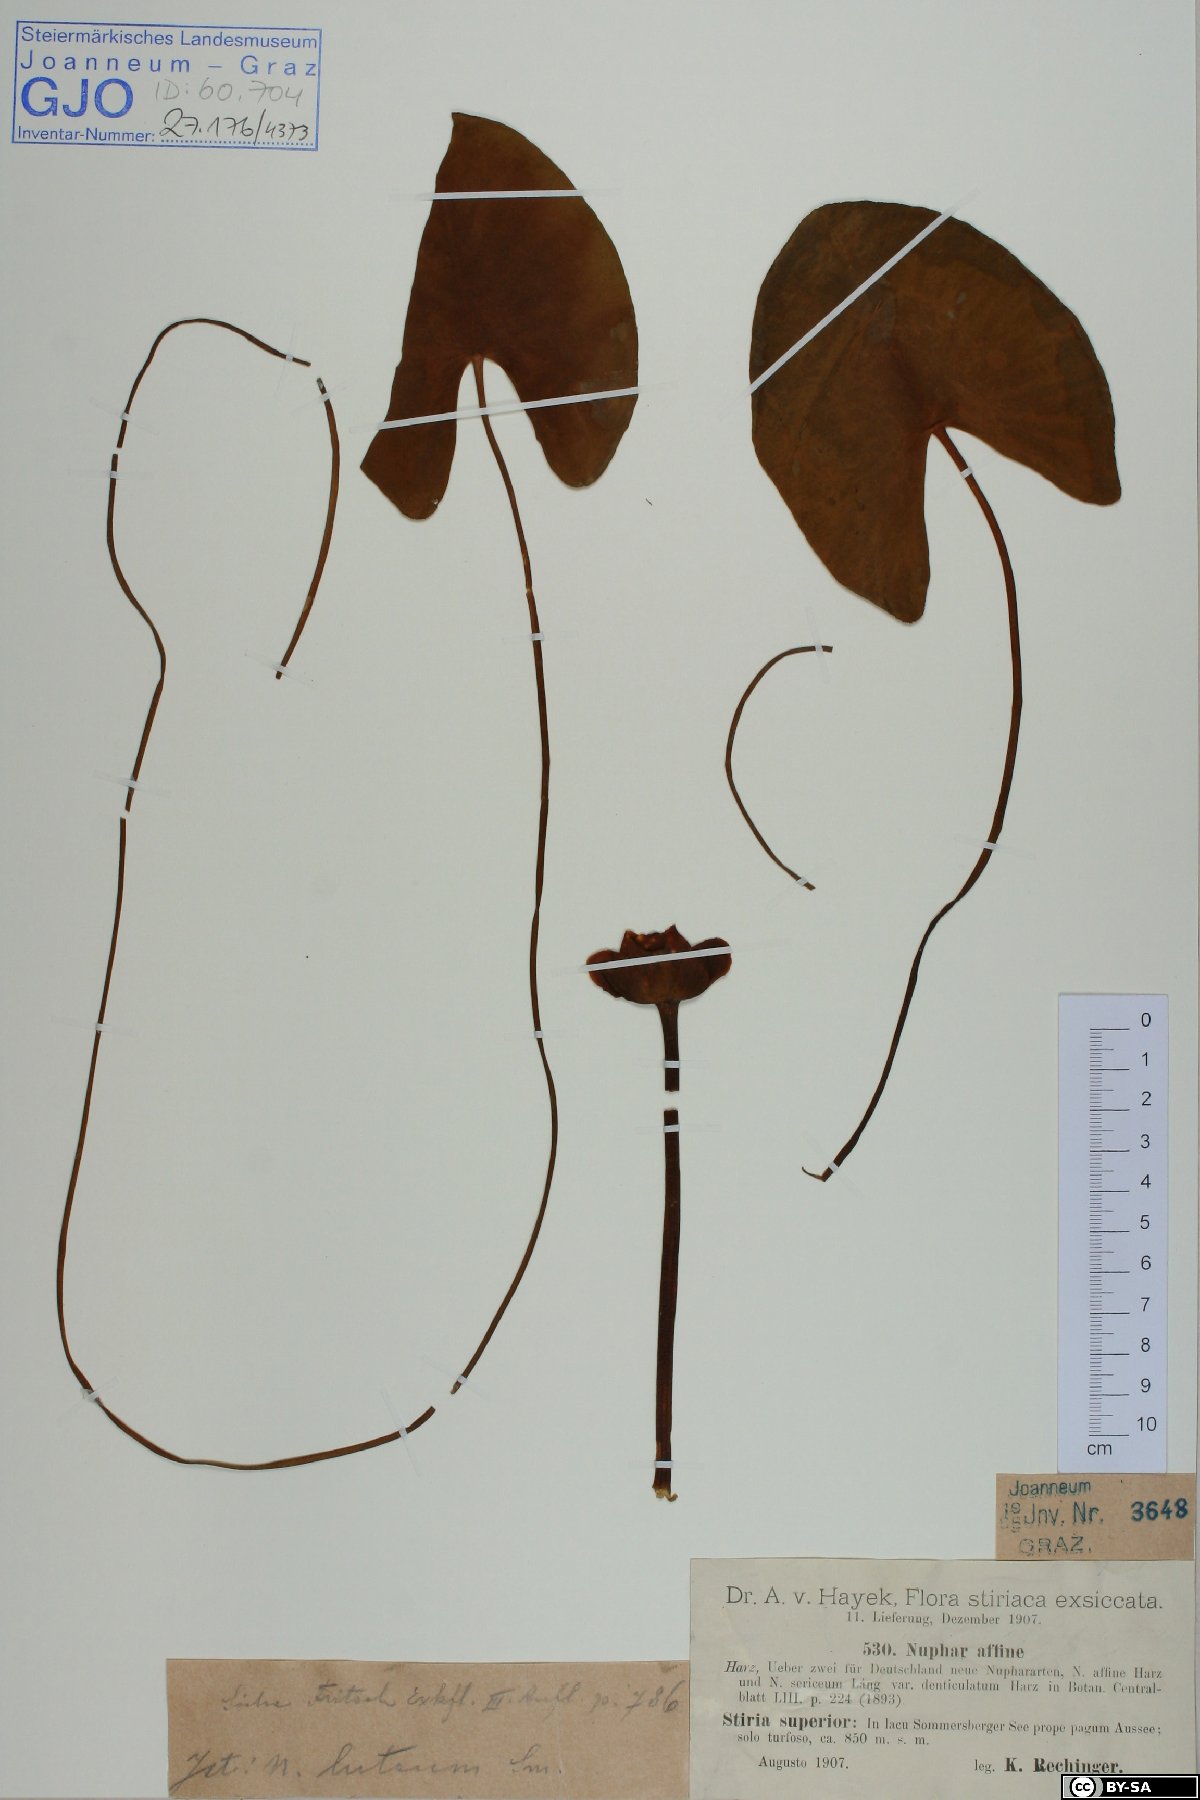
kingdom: Plantae
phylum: Tracheophyta
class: Magnoliopsida
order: Nymphaeales
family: Nymphaeaceae
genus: Nuphar
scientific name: Nuphar lutea
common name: Yellow water-lily
